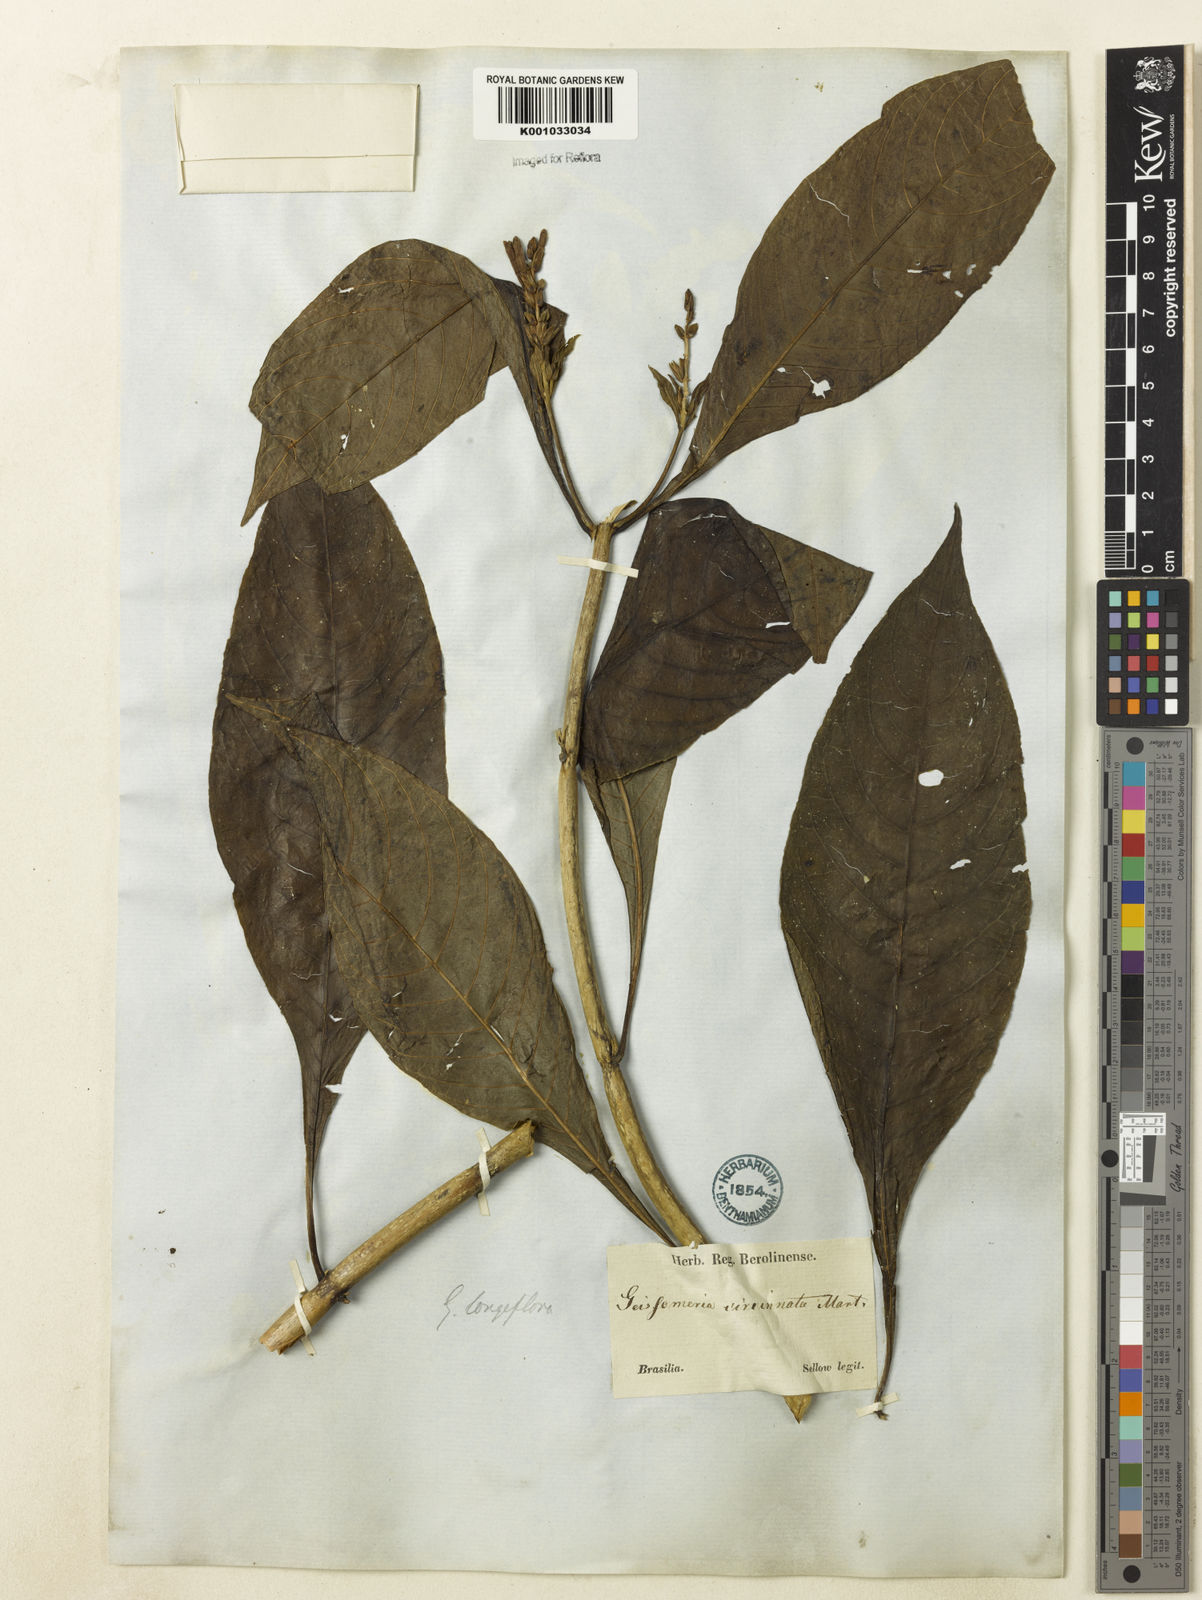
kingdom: Plantae
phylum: Tracheophyta
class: Magnoliopsida
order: Lamiales
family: Acanthaceae
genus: Aphelandra
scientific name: Aphelandra longiflora
